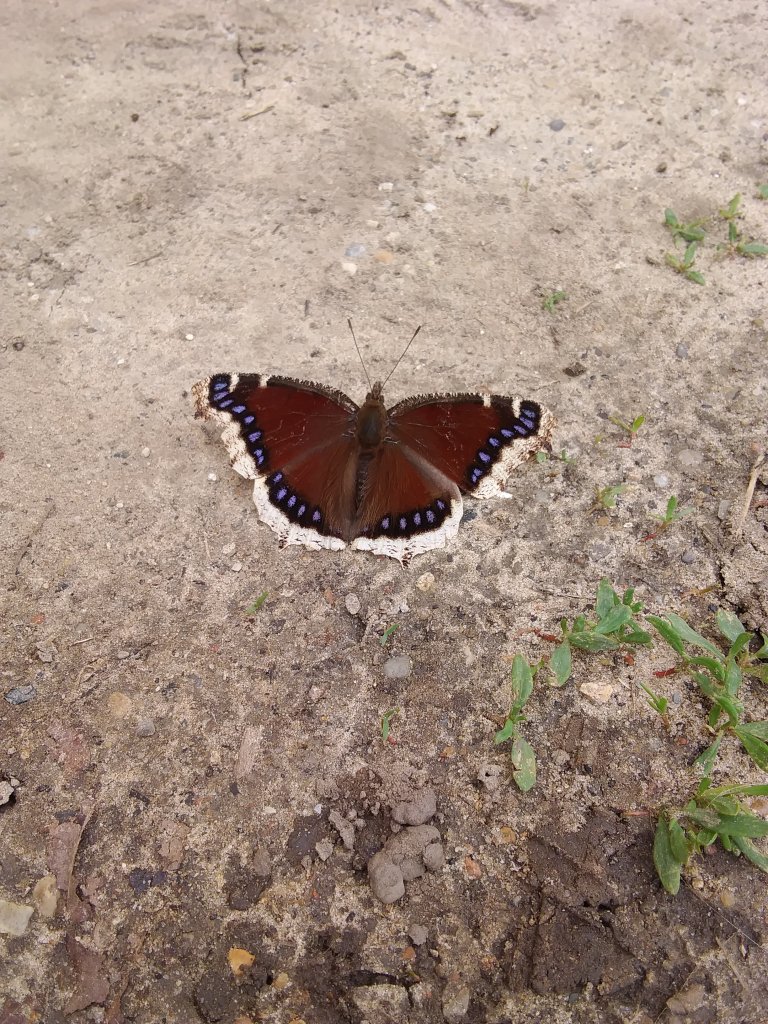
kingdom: Animalia
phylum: Arthropoda
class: Insecta
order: Lepidoptera
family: Nymphalidae
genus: Nymphalis
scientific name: Nymphalis antiopa
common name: Mourning Cloak
